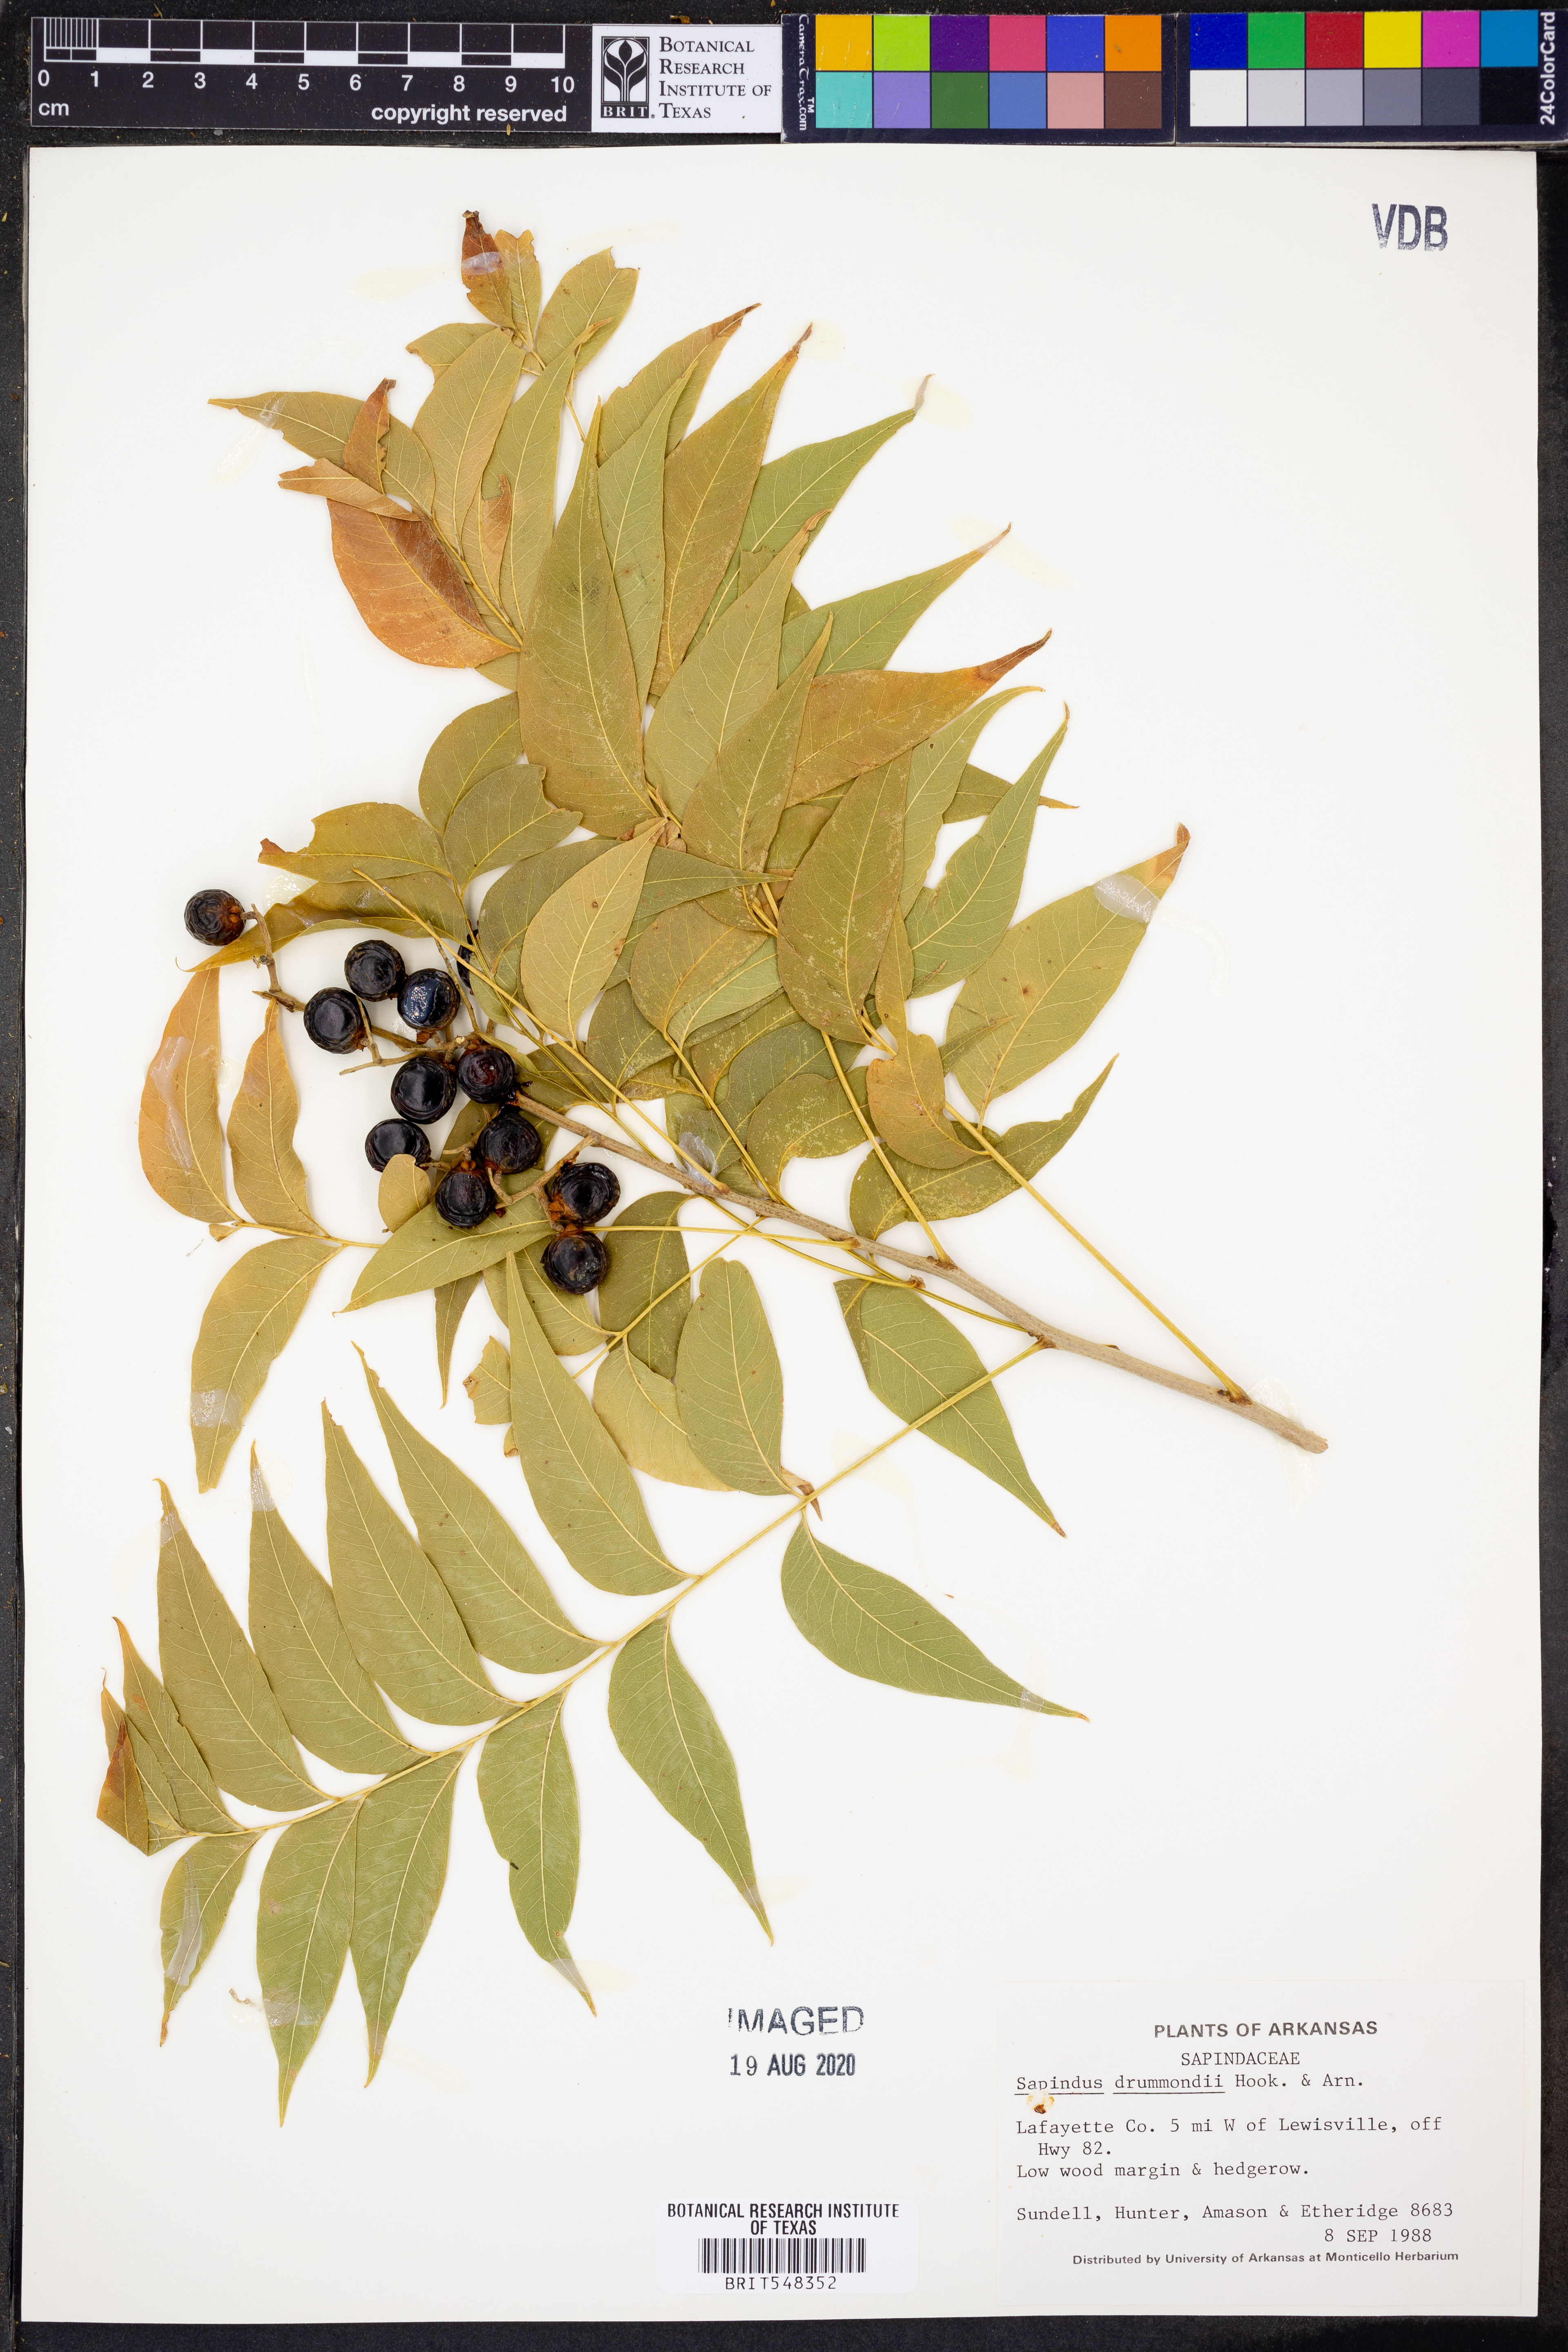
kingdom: Plantae
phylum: Tracheophyta
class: Magnoliopsida
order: Sapindales
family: Sapindaceae
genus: Sapindus
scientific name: Sapindus drummondii
